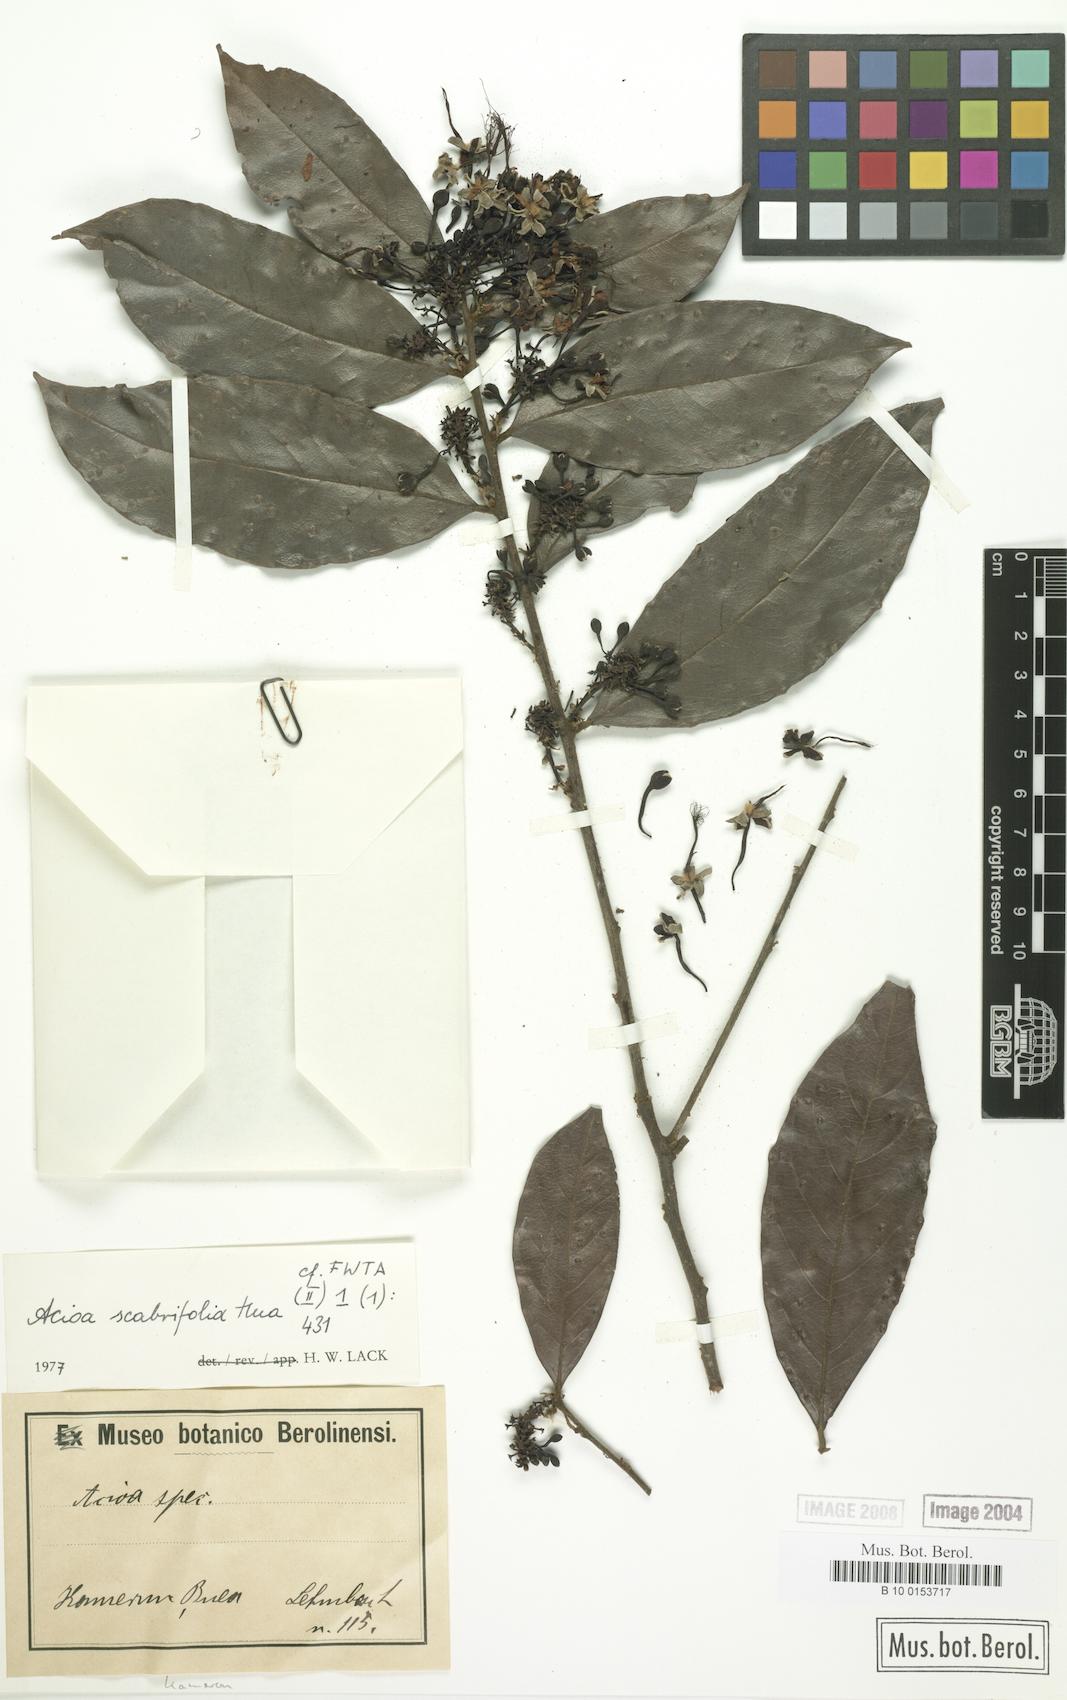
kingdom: Plantae
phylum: Tracheophyta
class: Magnoliopsida
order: Malpighiales
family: Chrysobalanaceae
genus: Dactyladenia
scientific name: Dactyladenia lehmbachii
